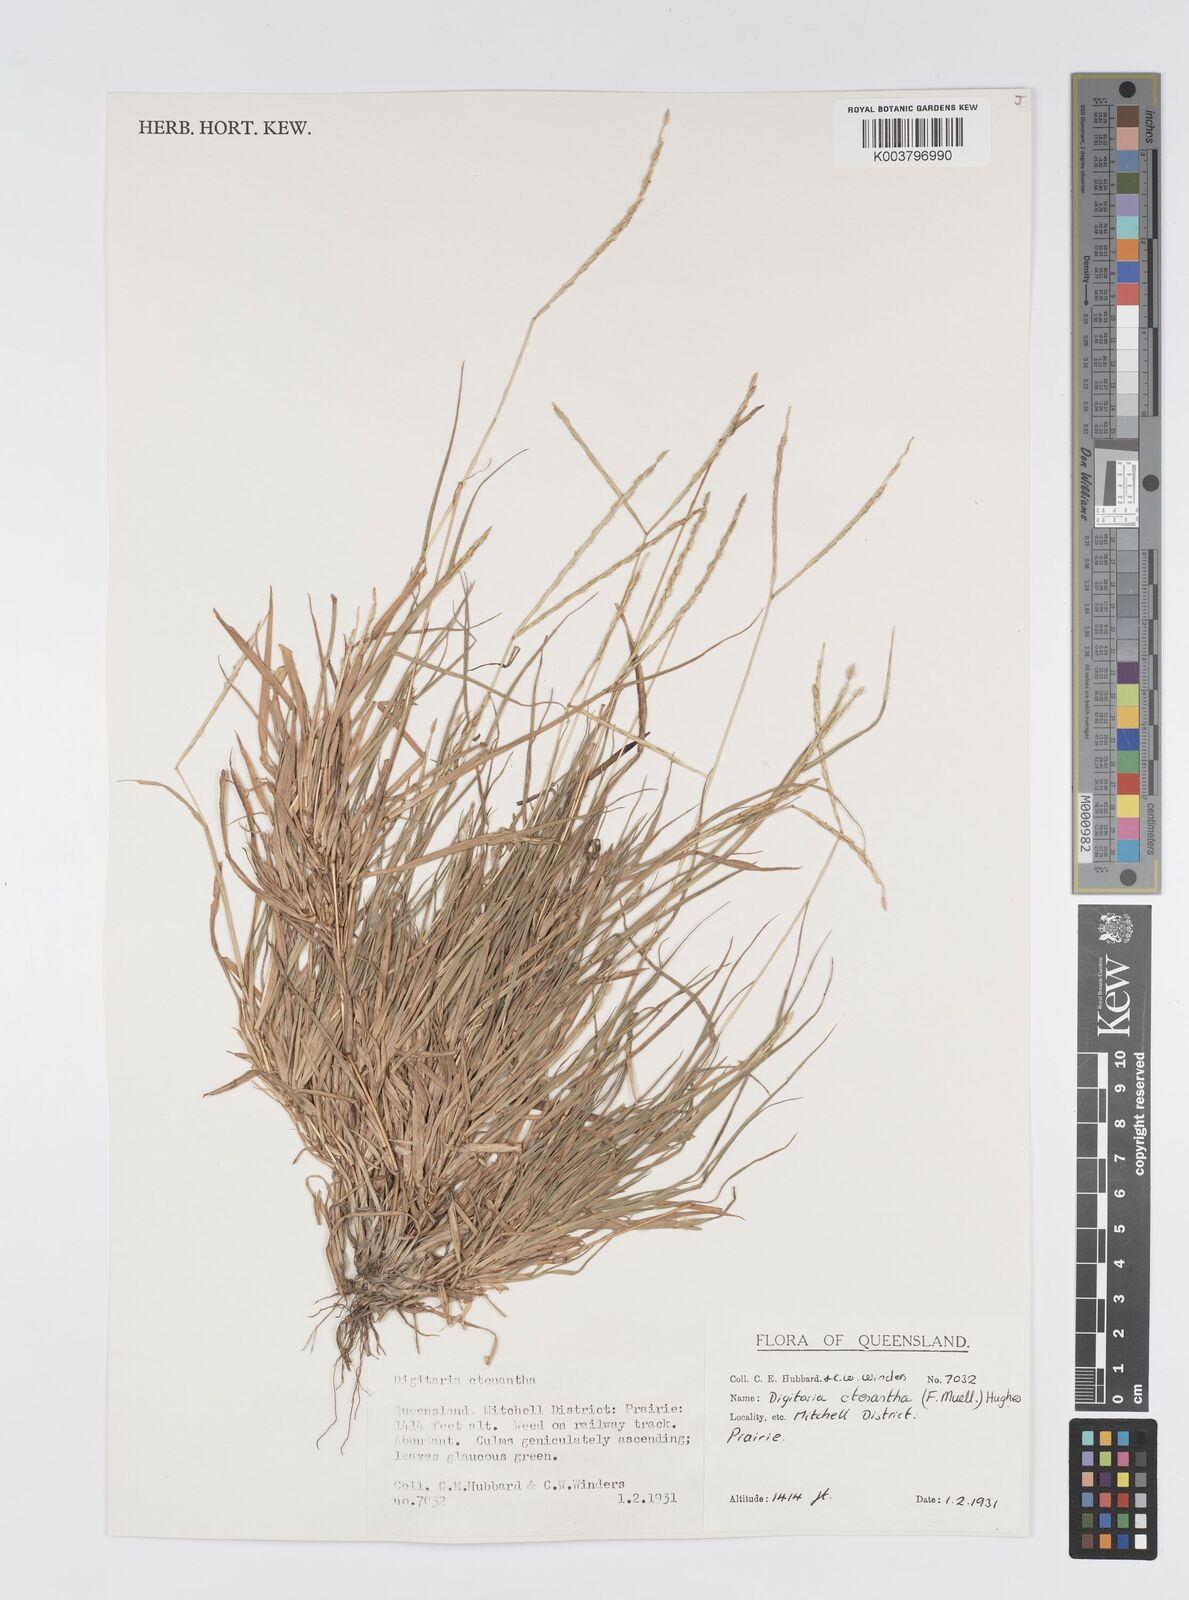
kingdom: Plantae
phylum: Tracheophyta
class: Liliopsida
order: Poales
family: Poaceae
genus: Digitaria
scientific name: Digitaria ctenantha
